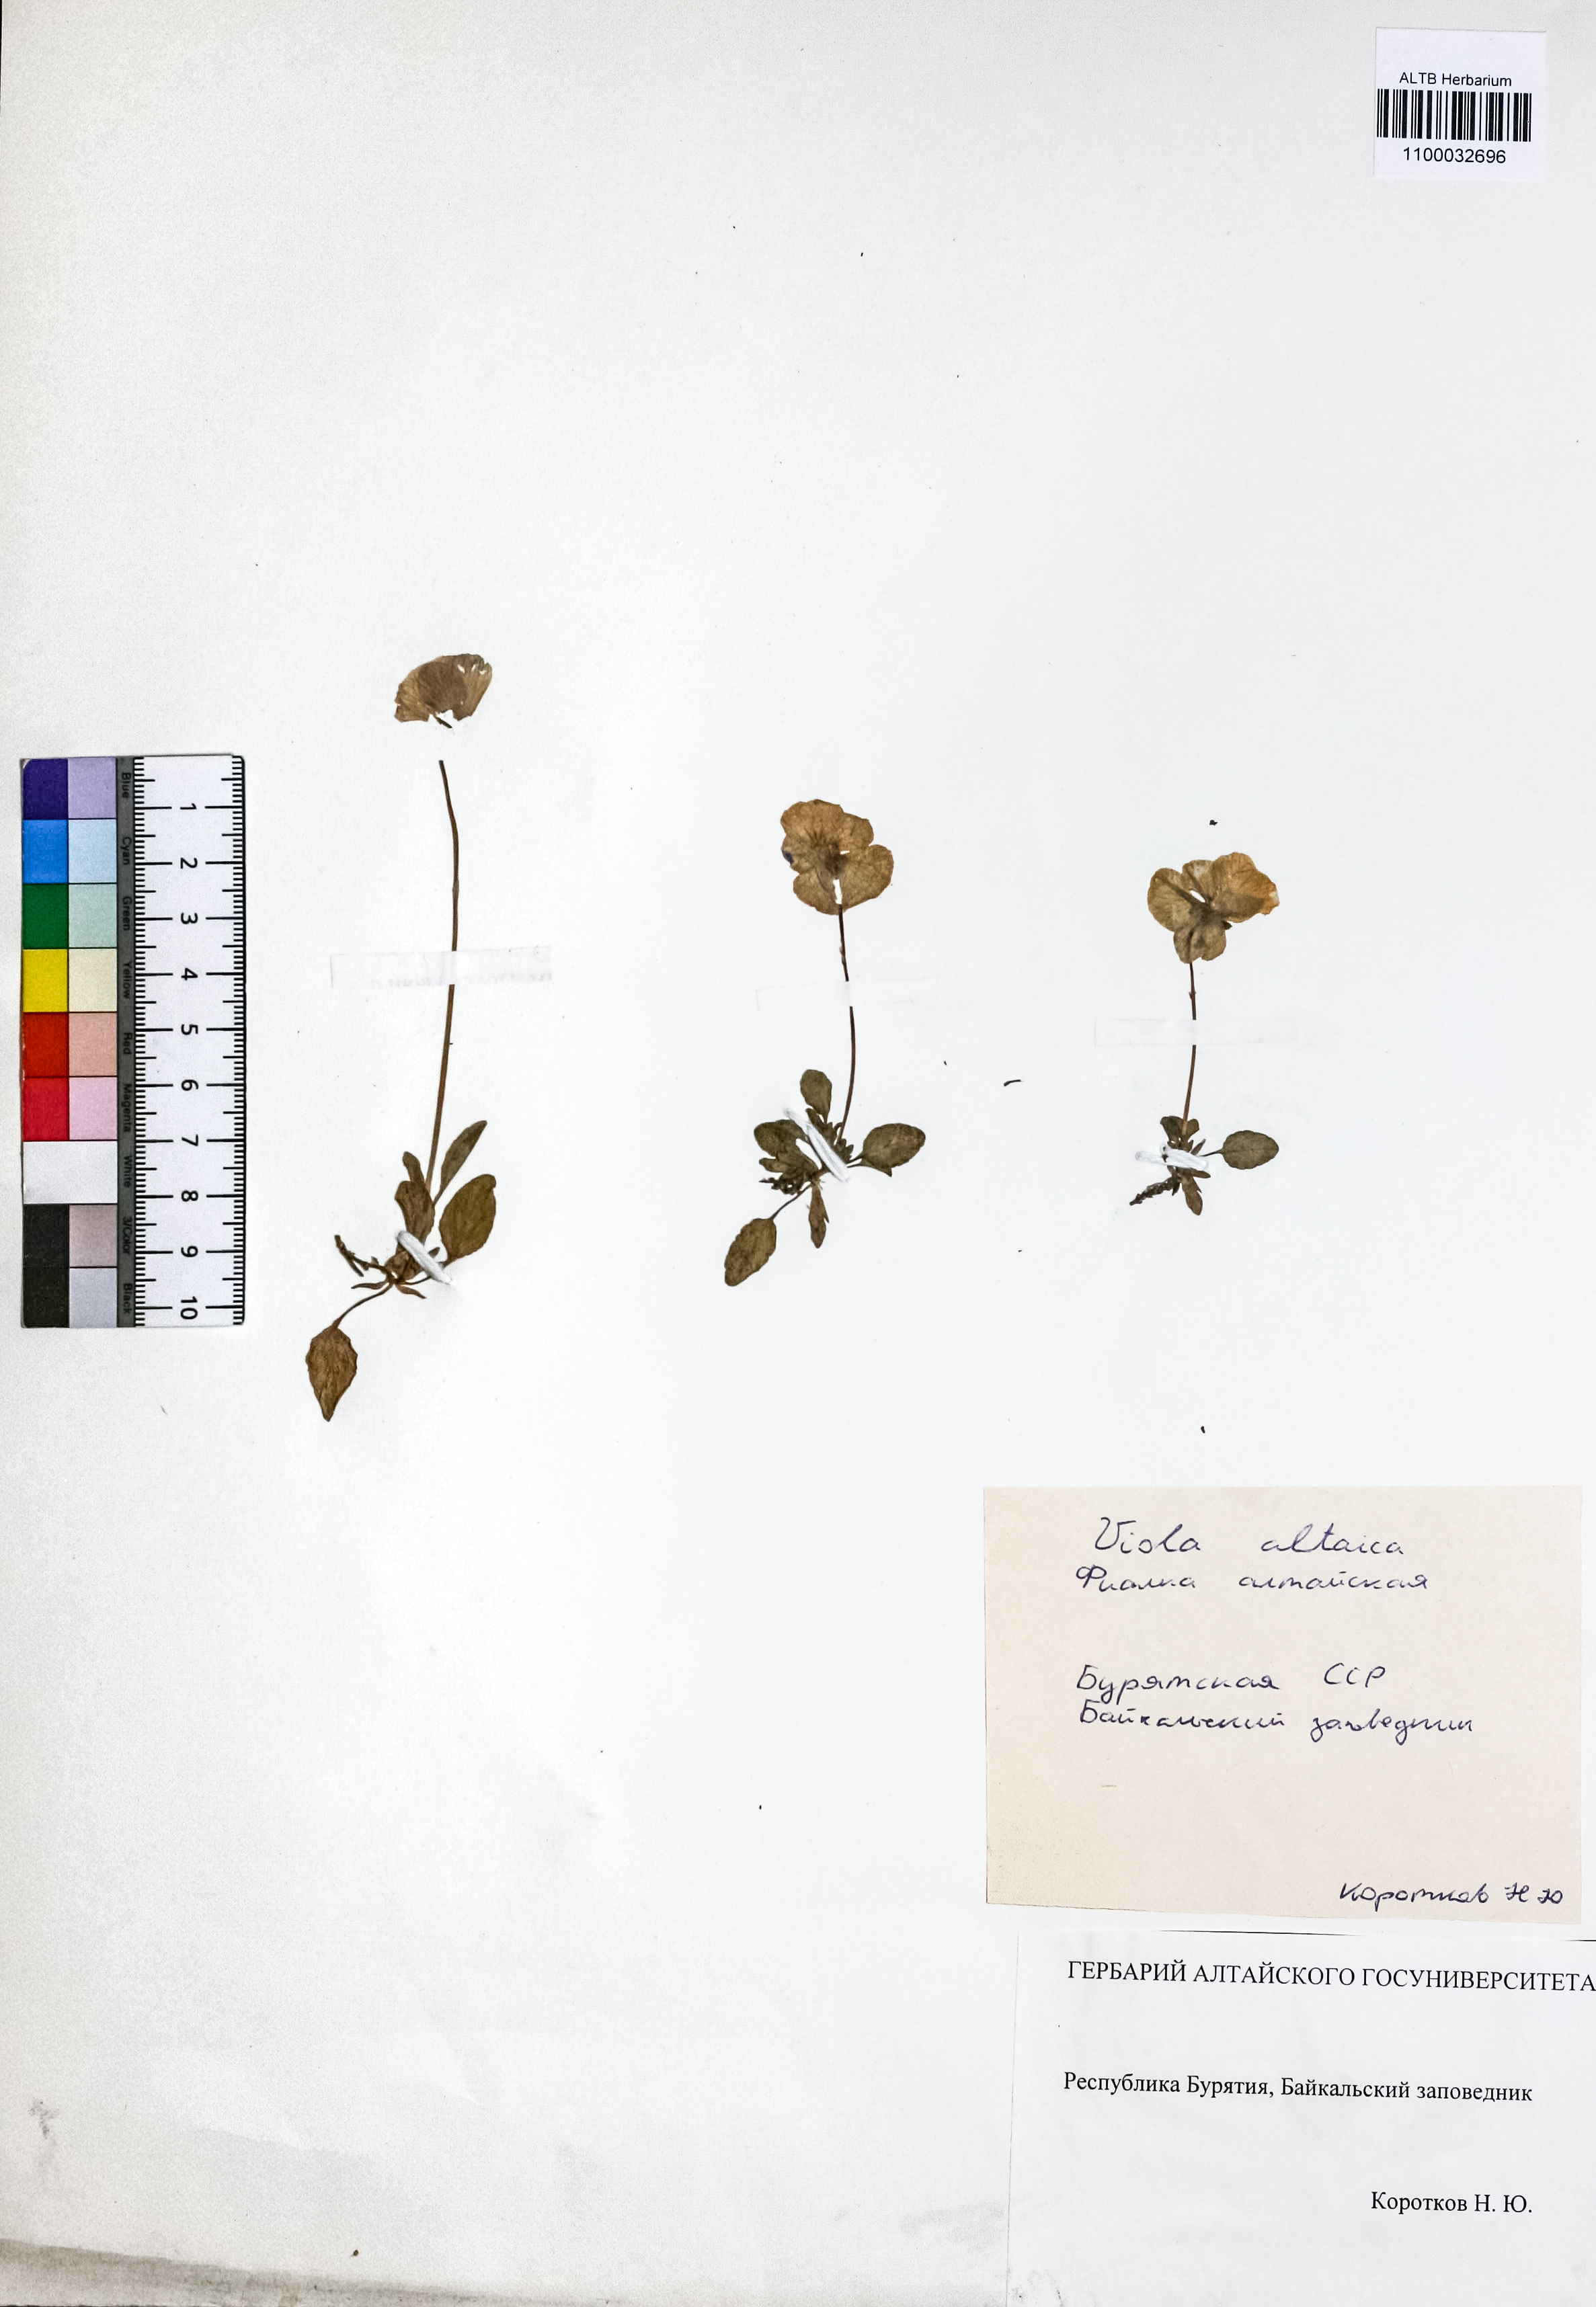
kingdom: Plantae
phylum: Tracheophyta
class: Magnoliopsida
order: Malpighiales
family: Violaceae
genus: Viola
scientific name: Viola altaica
